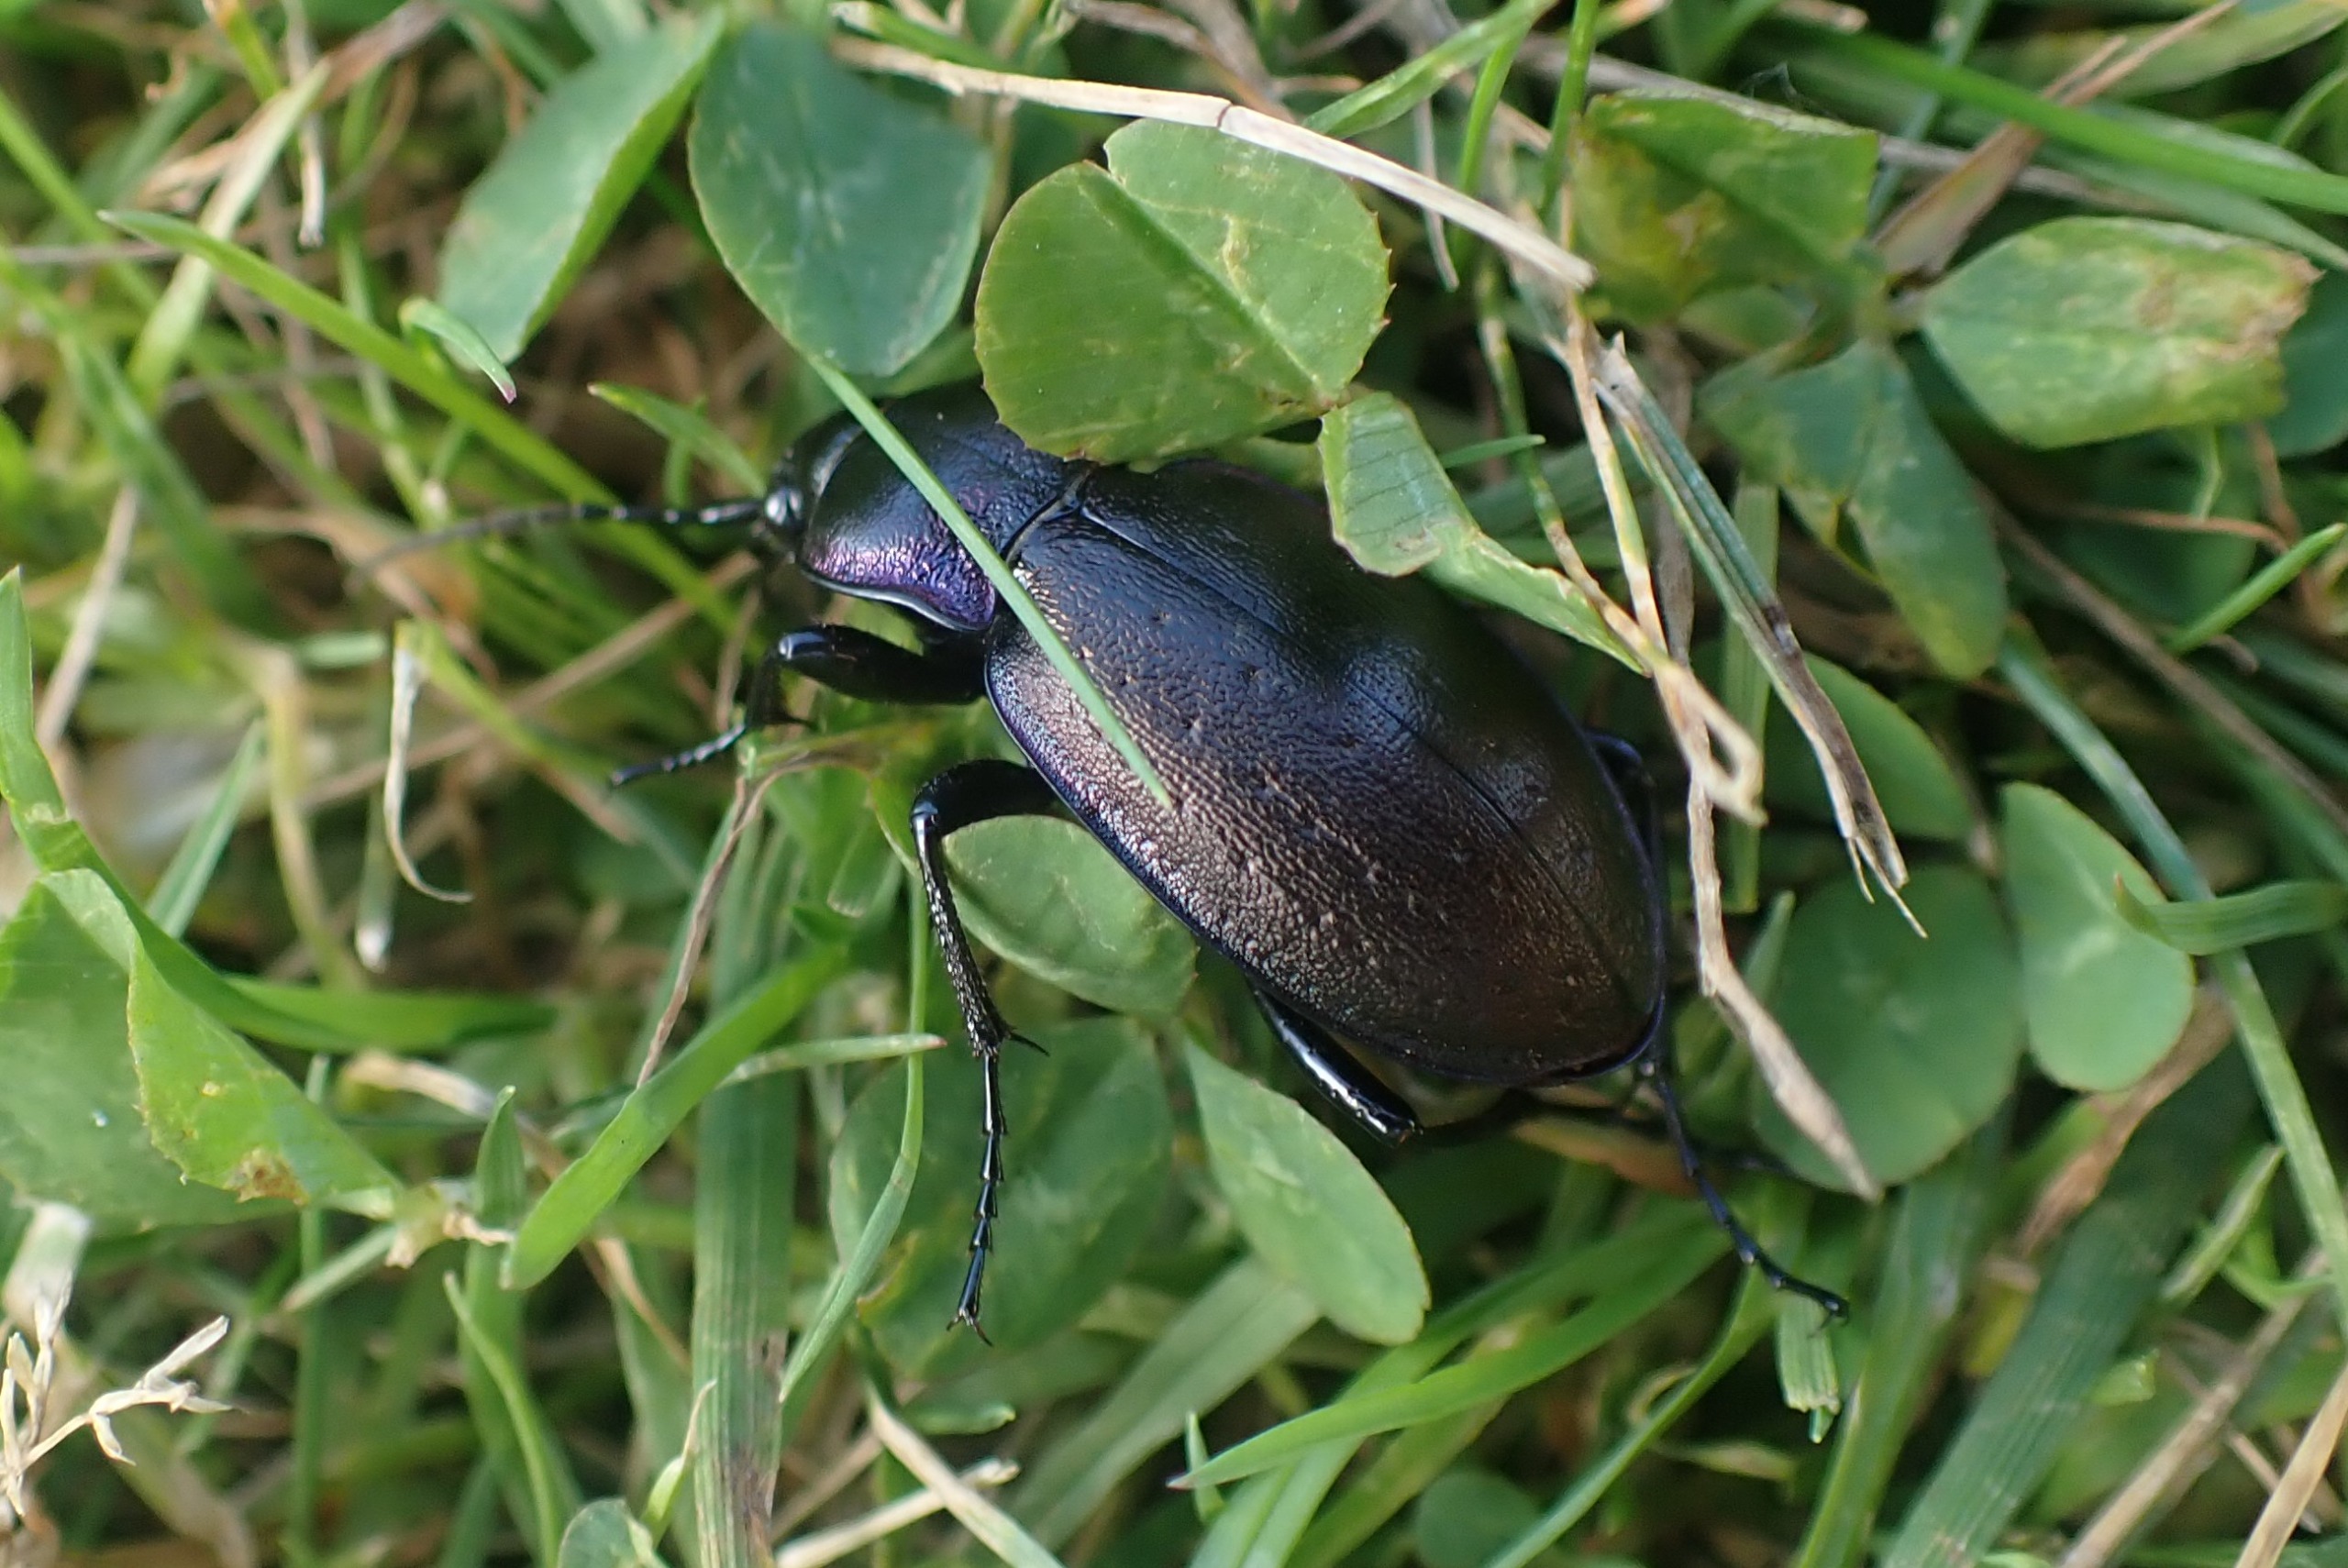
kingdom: Animalia
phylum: Arthropoda
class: Insecta
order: Coleoptera
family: Carabidae
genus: Carabus
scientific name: Carabus nemoralis
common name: Kratløber
